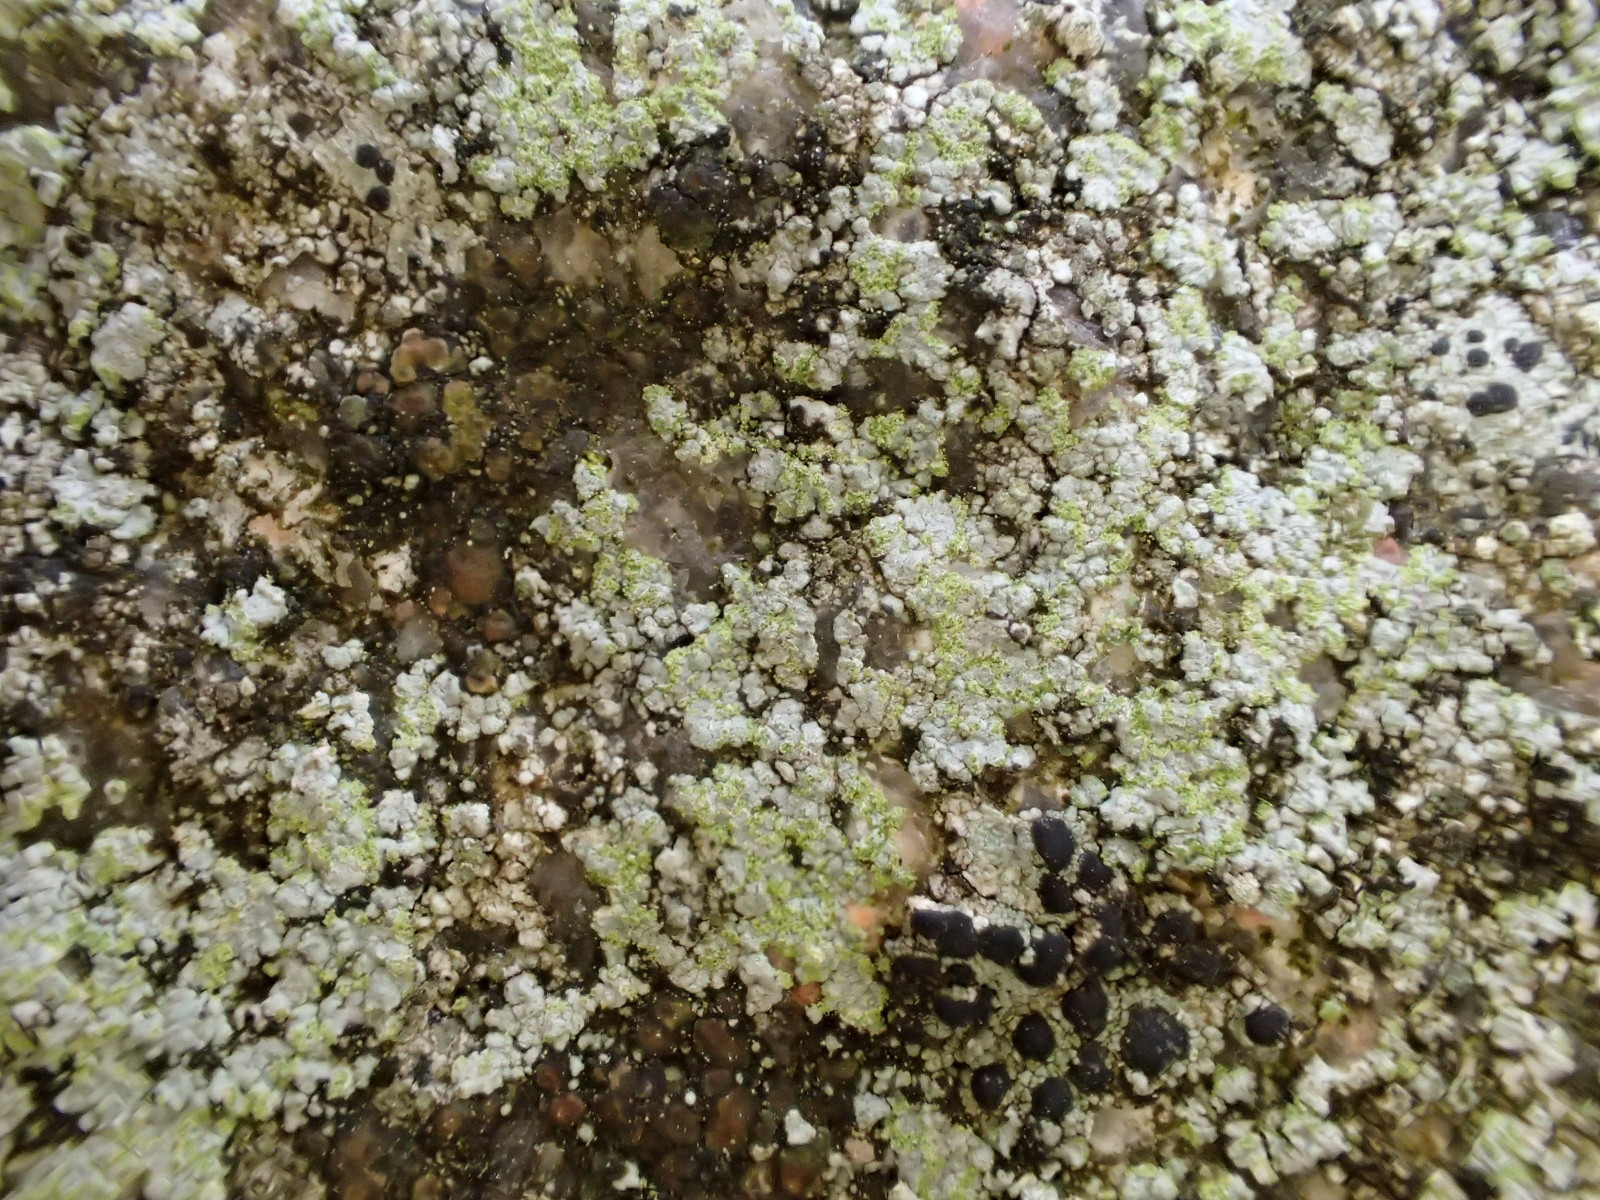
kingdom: Fungi
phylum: Ascomycota
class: Lecanoromycetes
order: Baeomycetales
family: Trapeliaceae
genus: Kleopowiella
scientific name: Kleopowiella placodioides
